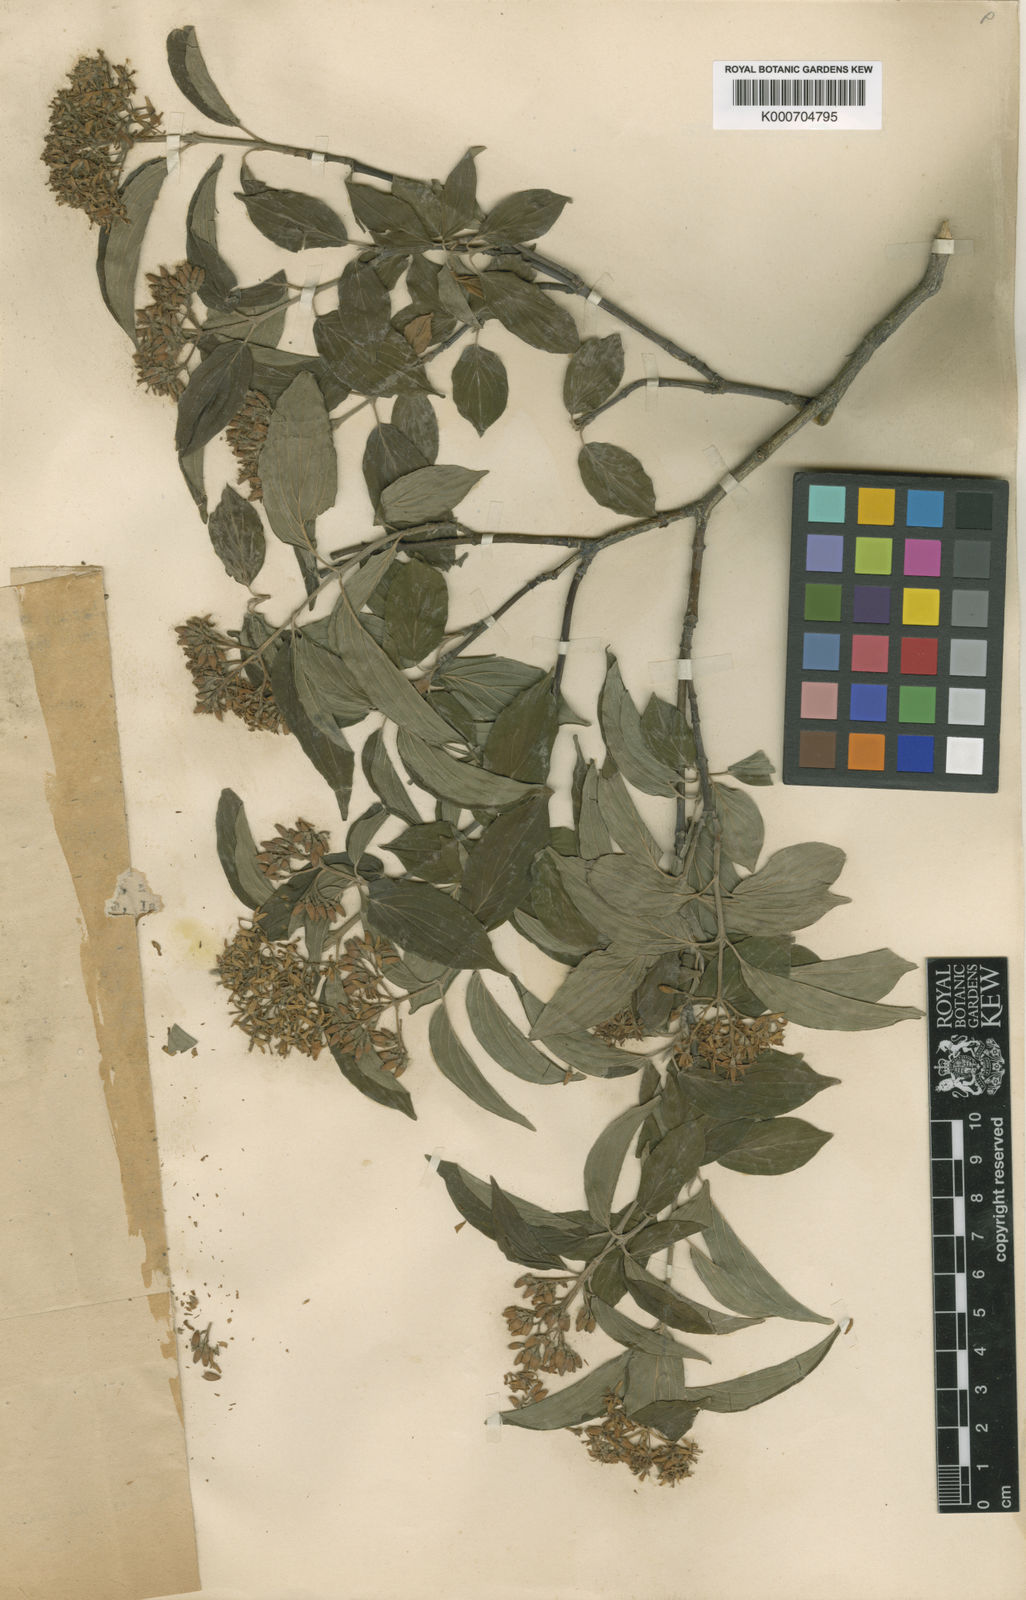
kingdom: Plantae
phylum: Tracheophyta
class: Magnoliopsida
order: Cornales
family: Cornaceae
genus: Cornus
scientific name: Cornus iberica
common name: Spanish dogwood
